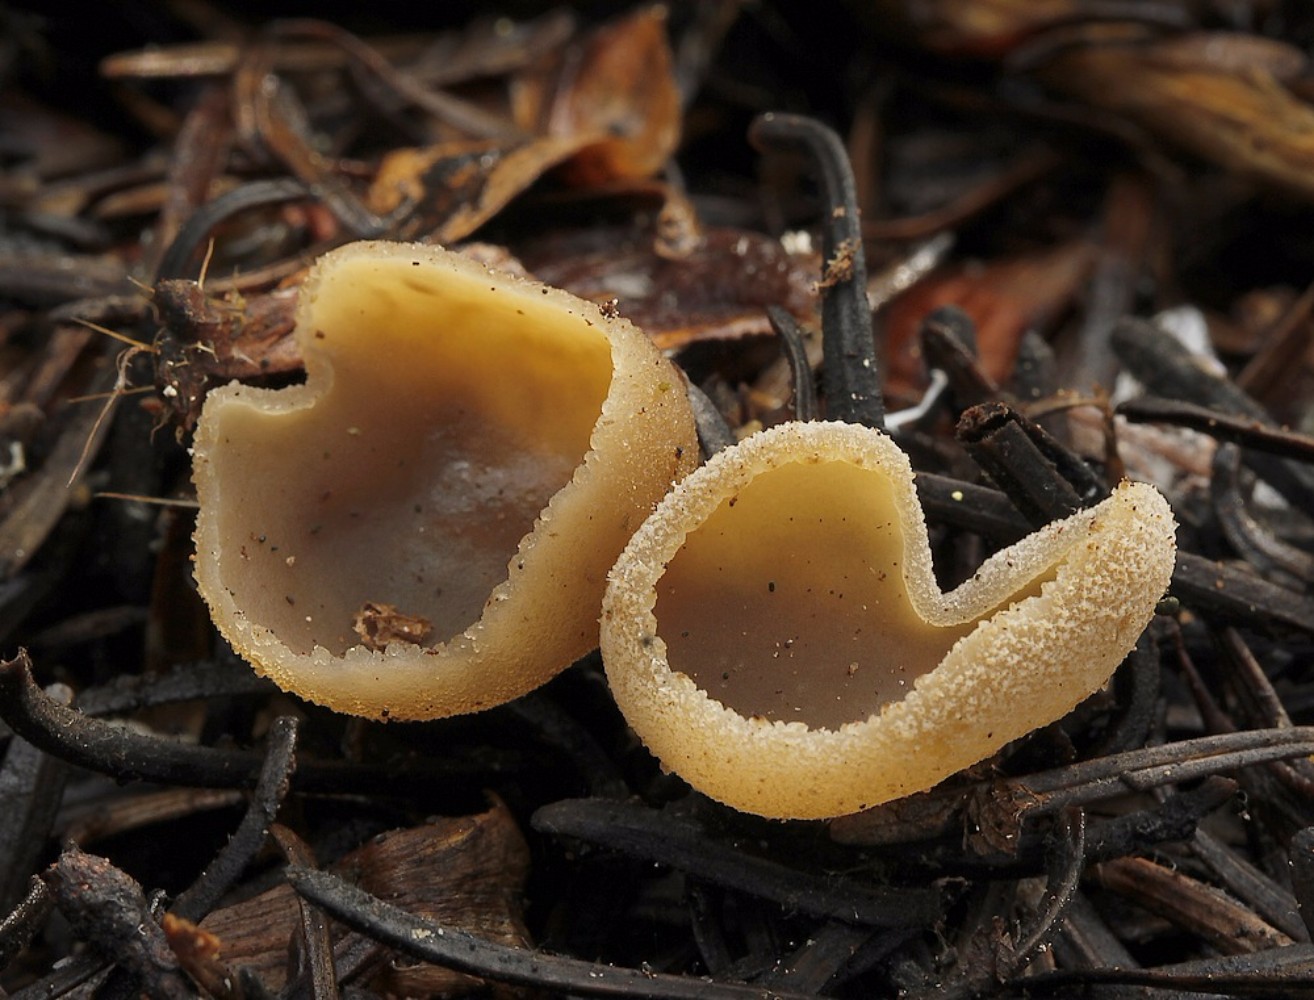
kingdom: Fungi
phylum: Ascomycota
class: Pezizomycetes
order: Pezizales
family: Pezizaceae
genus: Peziza
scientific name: Peziza fimeti
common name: møg-bægersvamp
